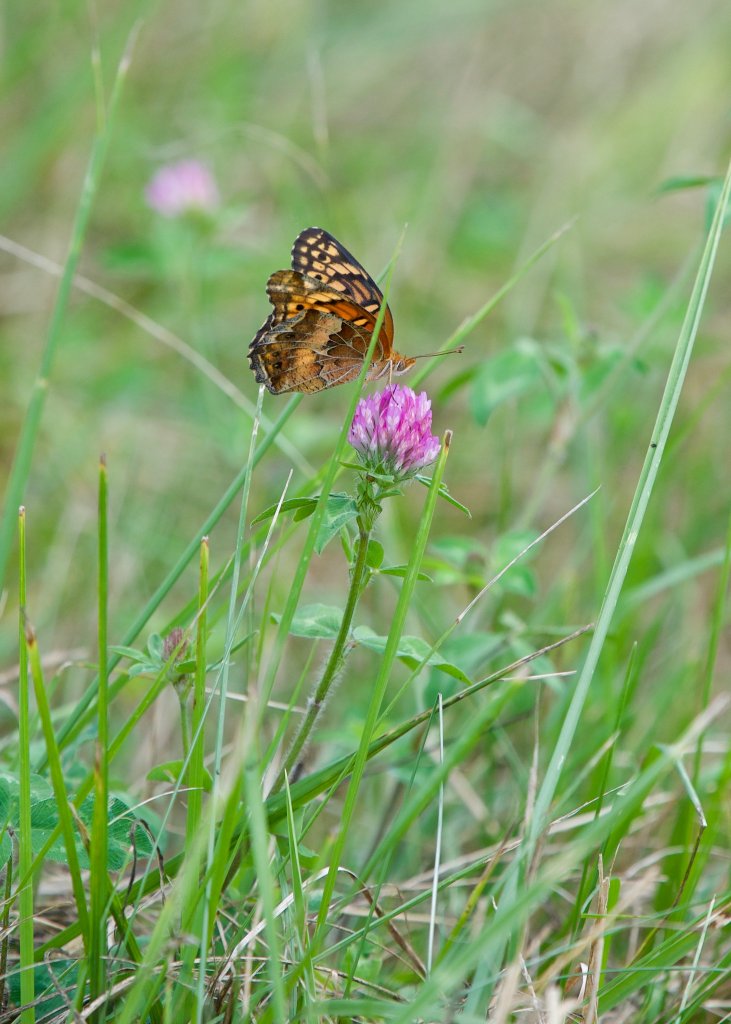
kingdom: Animalia
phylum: Arthropoda
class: Insecta
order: Lepidoptera
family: Nymphalidae
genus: Euptoieta
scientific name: Euptoieta claudia
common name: Variegated Fritillary
